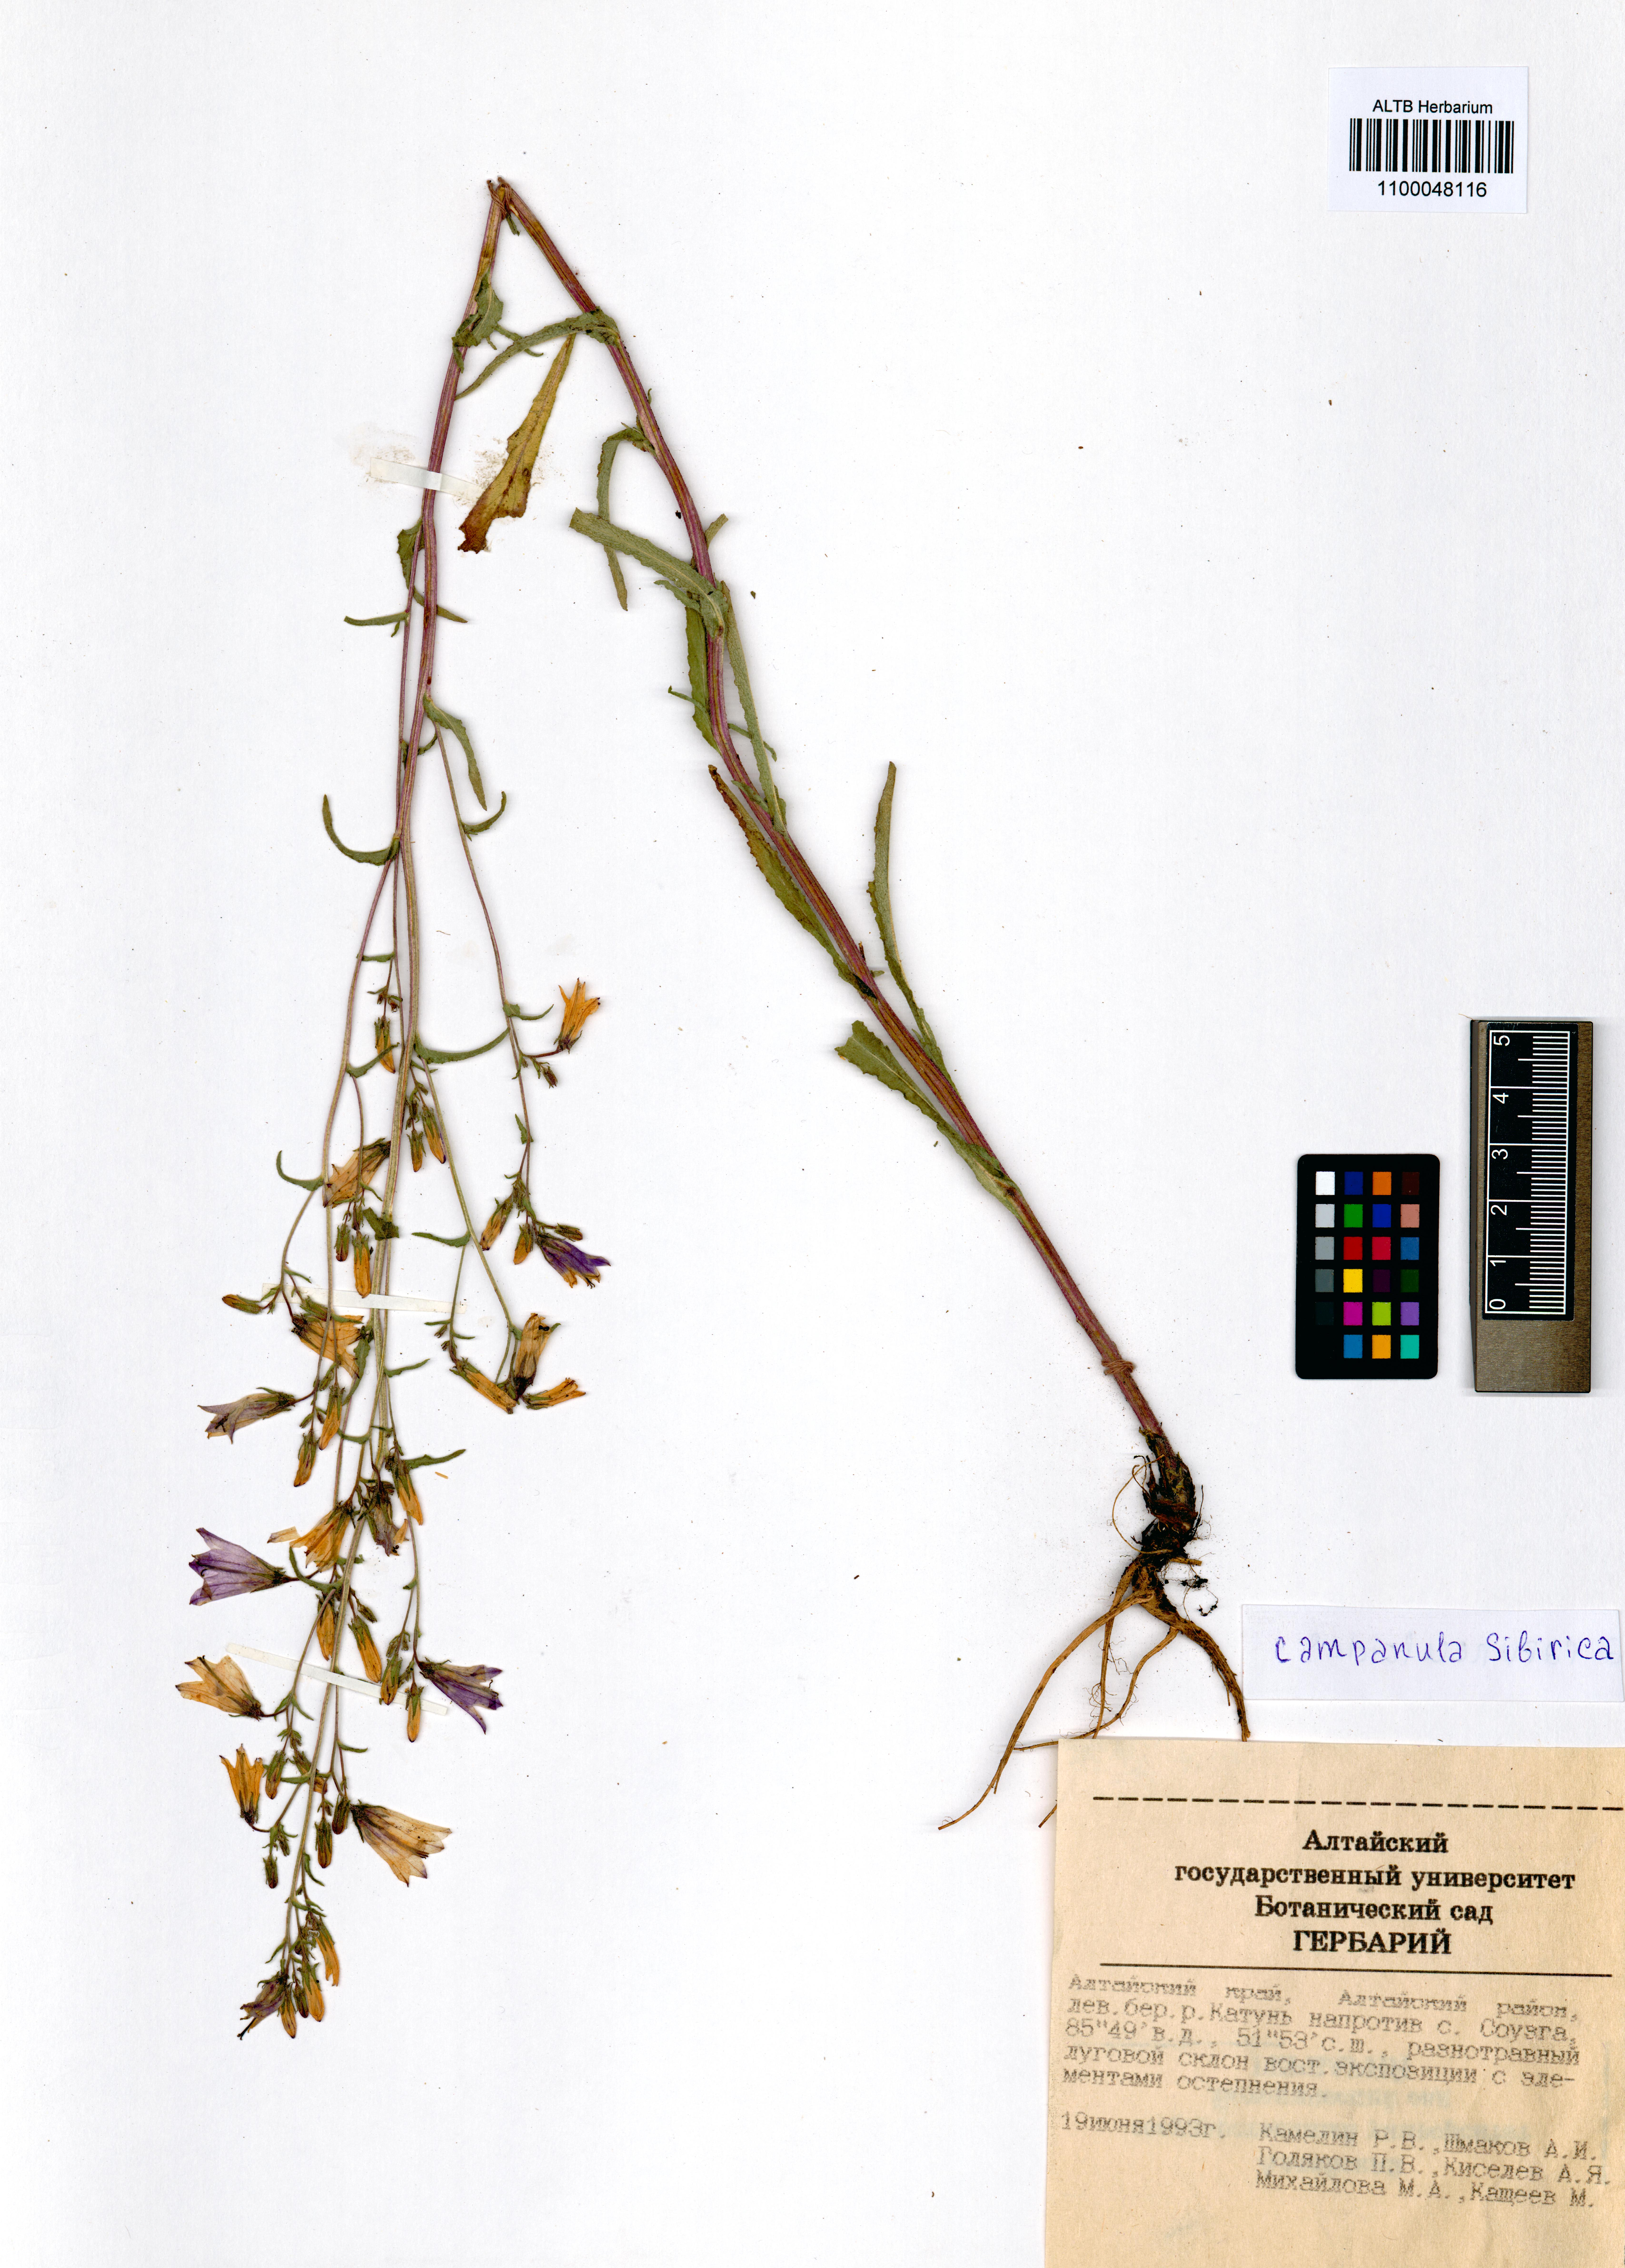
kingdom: Plantae
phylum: Tracheophyta
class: Magnoliopsida
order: Asterales
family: Campanulaceae
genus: Campanula
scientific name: Campanula sibirica
